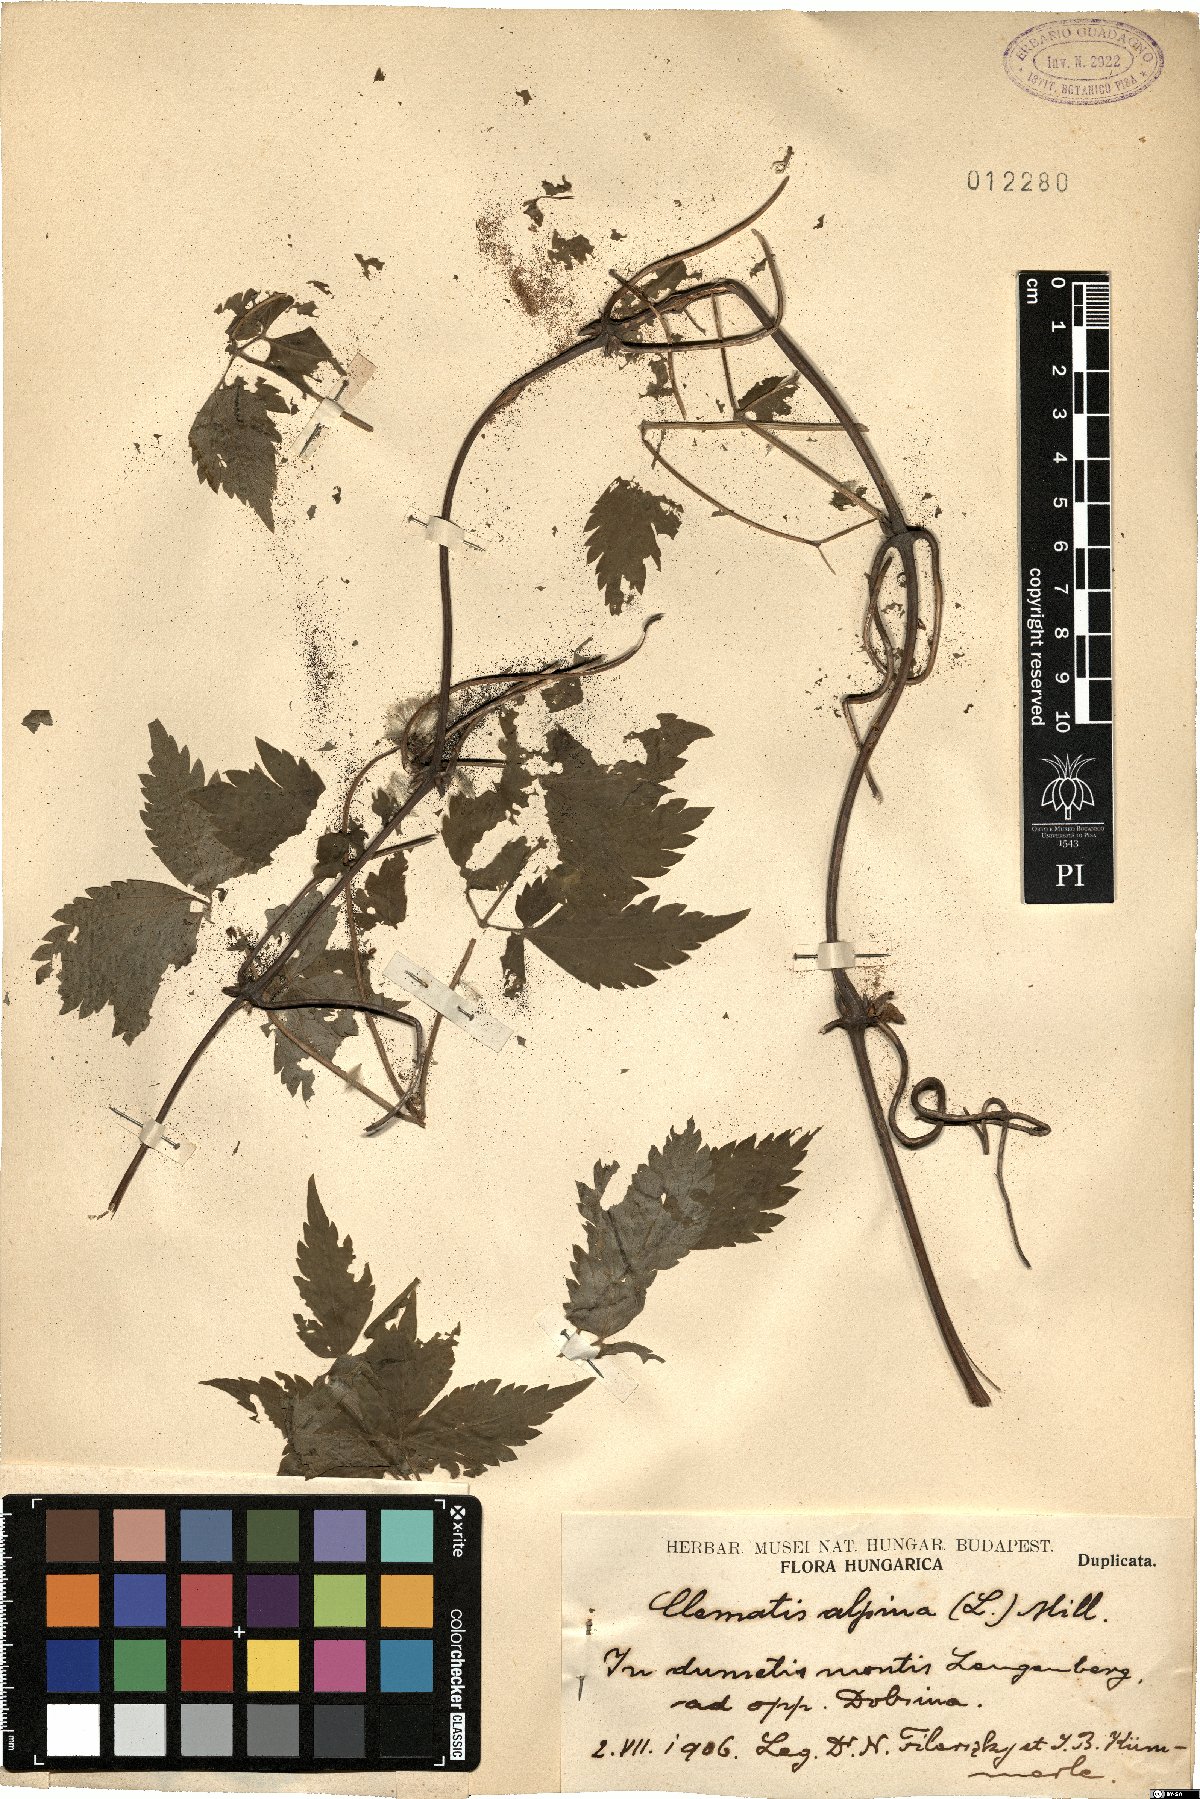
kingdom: Plantae
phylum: Tracheophyta
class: Magnoliopsida
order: Ranunculales
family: Ranunculaceae
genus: Clematis
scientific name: Clematis alpina
